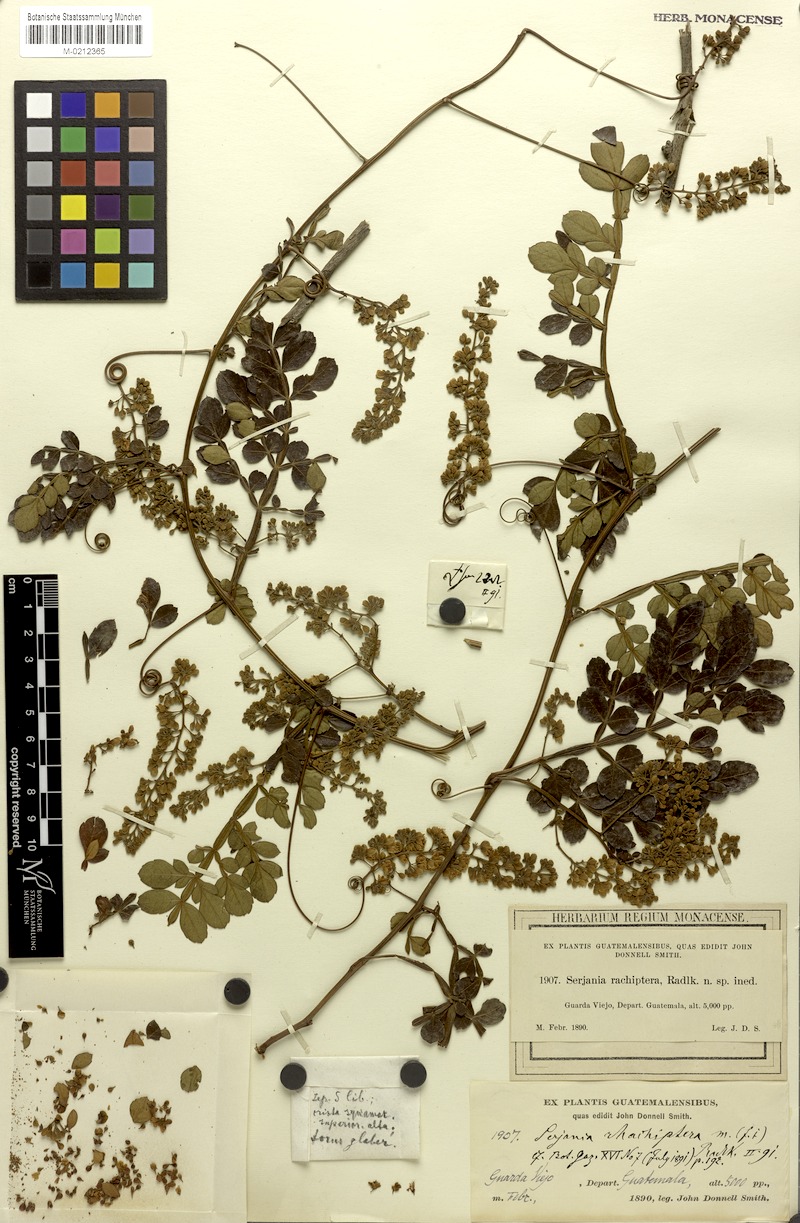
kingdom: Plantae
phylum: Tracheophyta
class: Magnoliopsida
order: Sapindales
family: Sapindaceae
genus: Serjania
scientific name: Serjania rhachiptera
